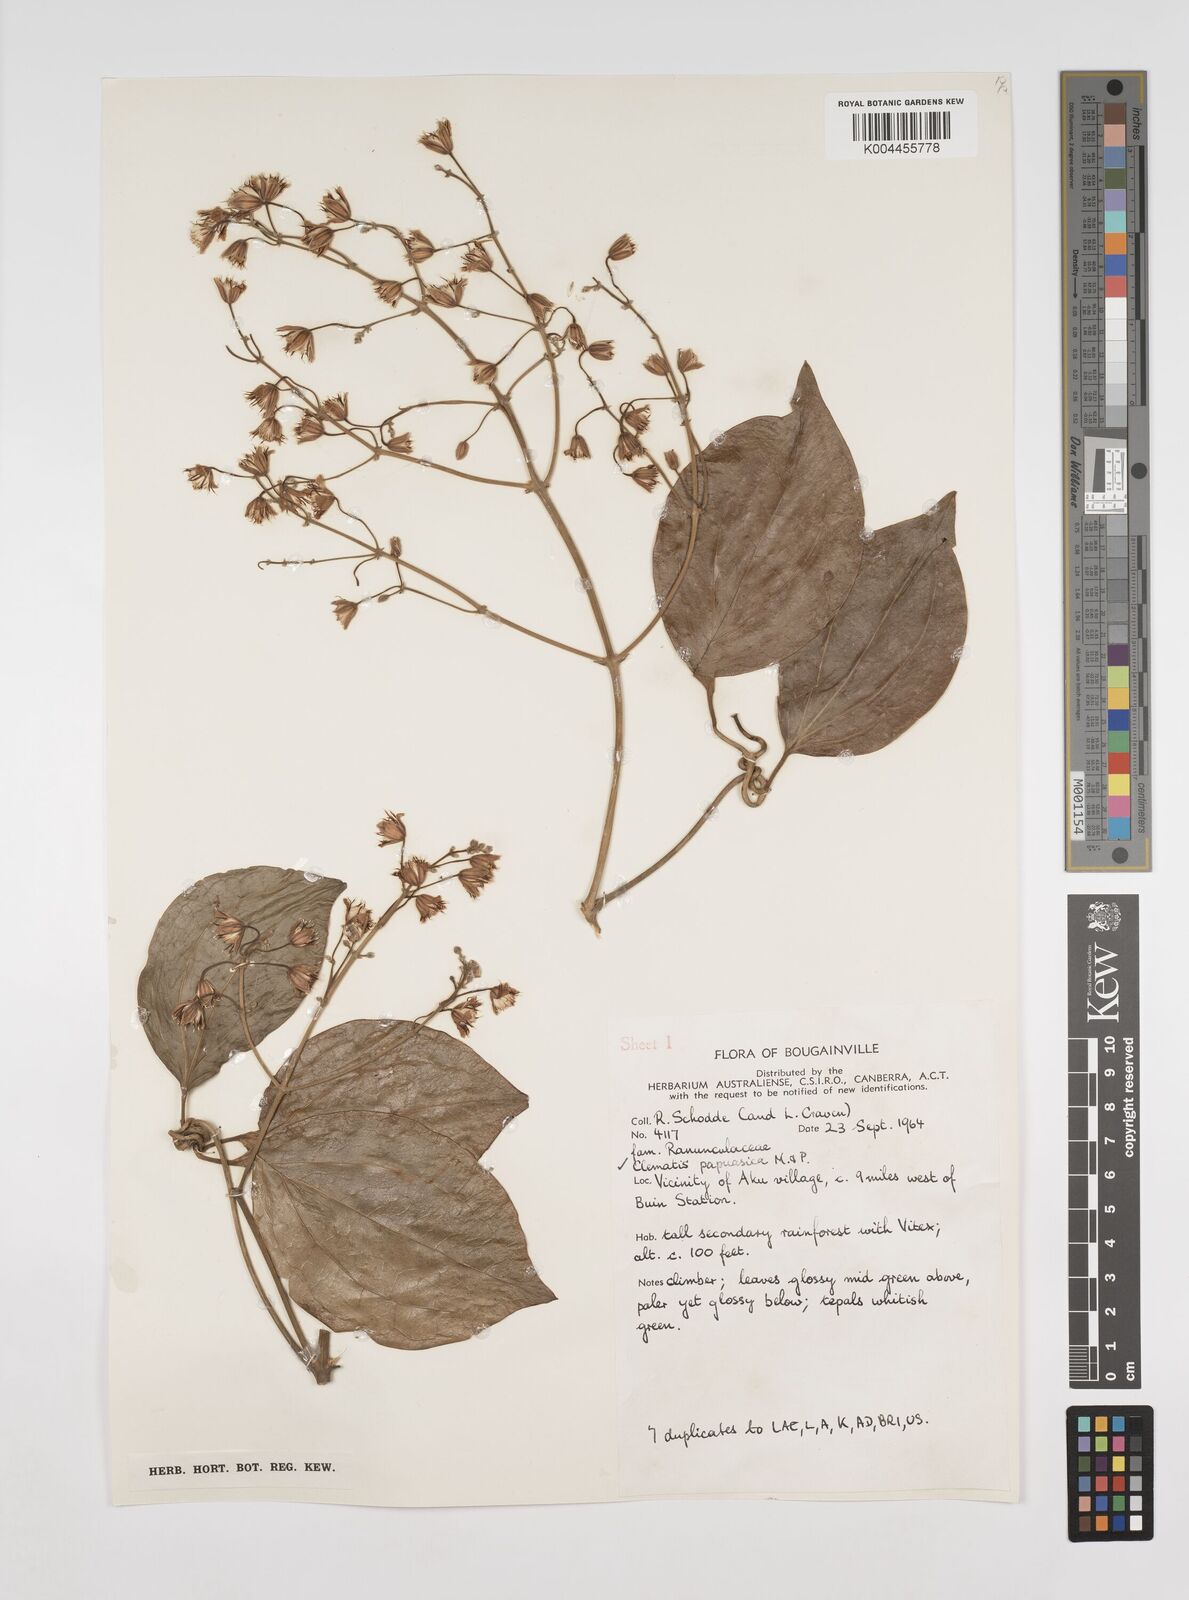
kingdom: Plantae
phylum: Tracheophyta
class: Magnoliopsida
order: Ranunculales
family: Ranunculaceae
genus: Clematis
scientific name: Clematis papuasica
